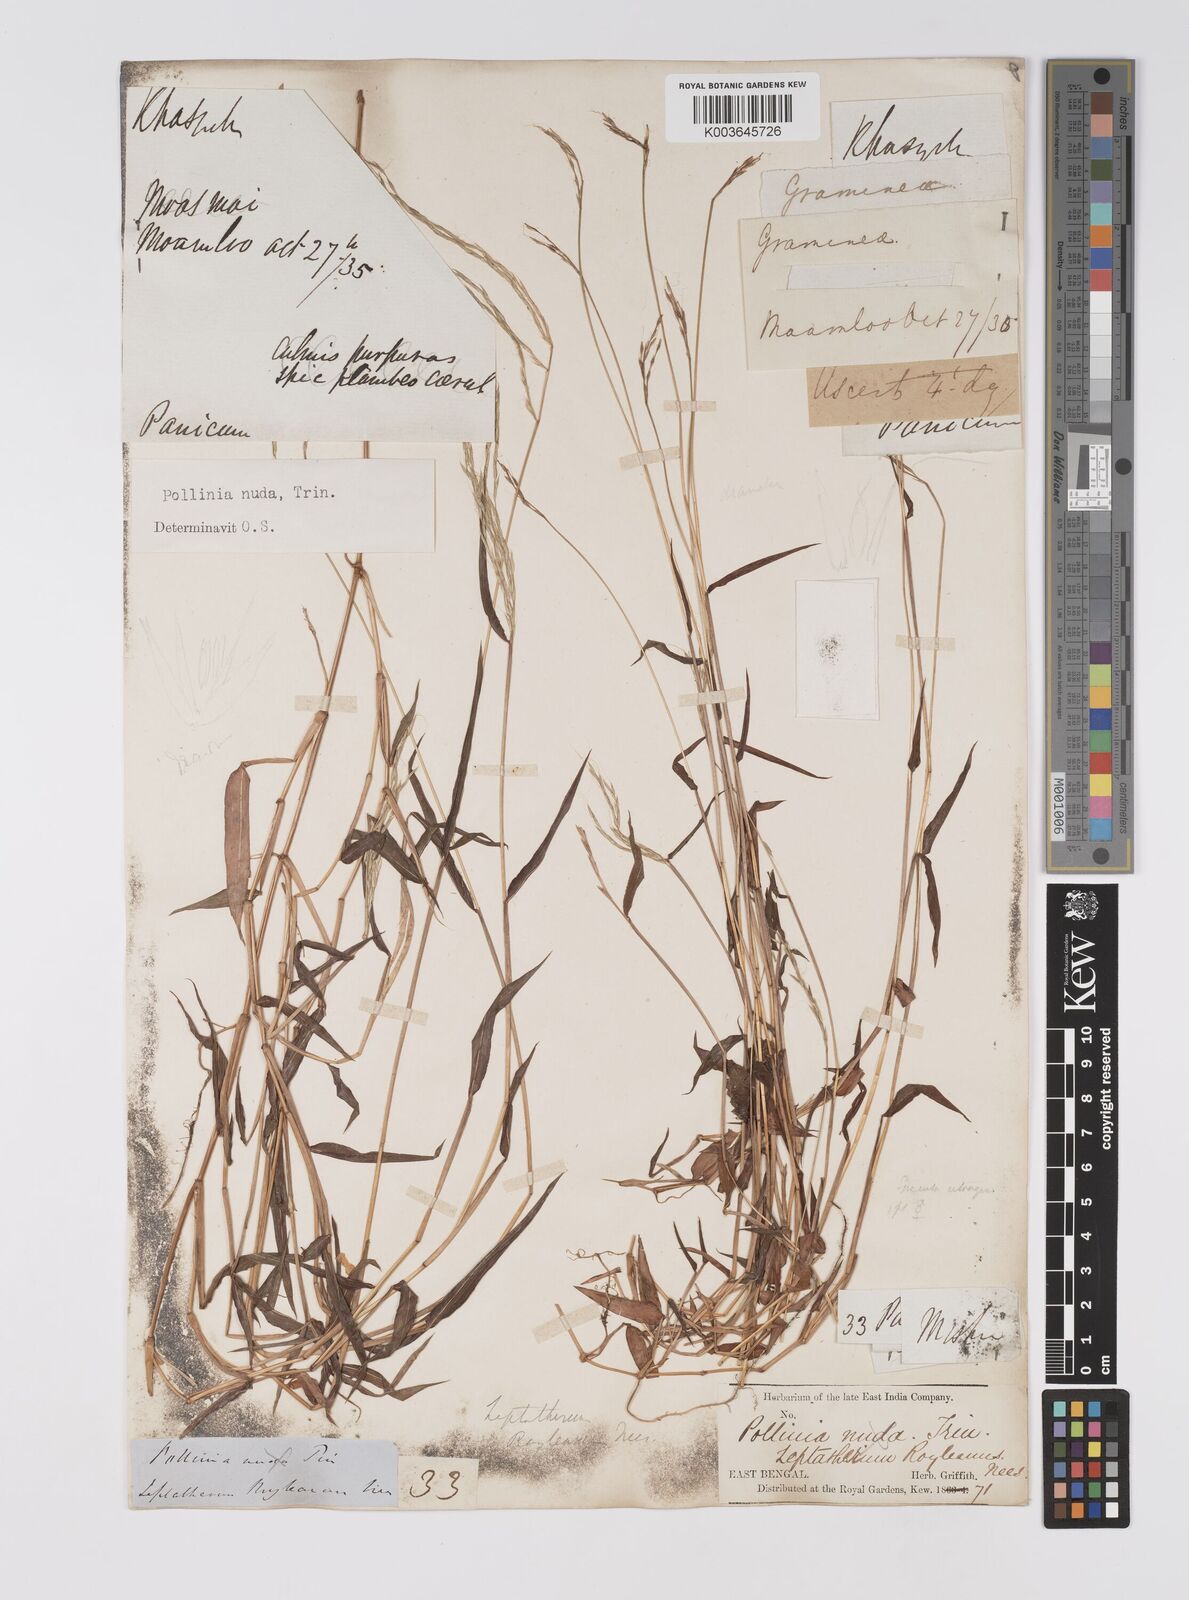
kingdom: Plantae
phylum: Tracheophyta
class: Liliopsida
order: Poales
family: Poaceae
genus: Microstegium
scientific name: Microstegium nudum
